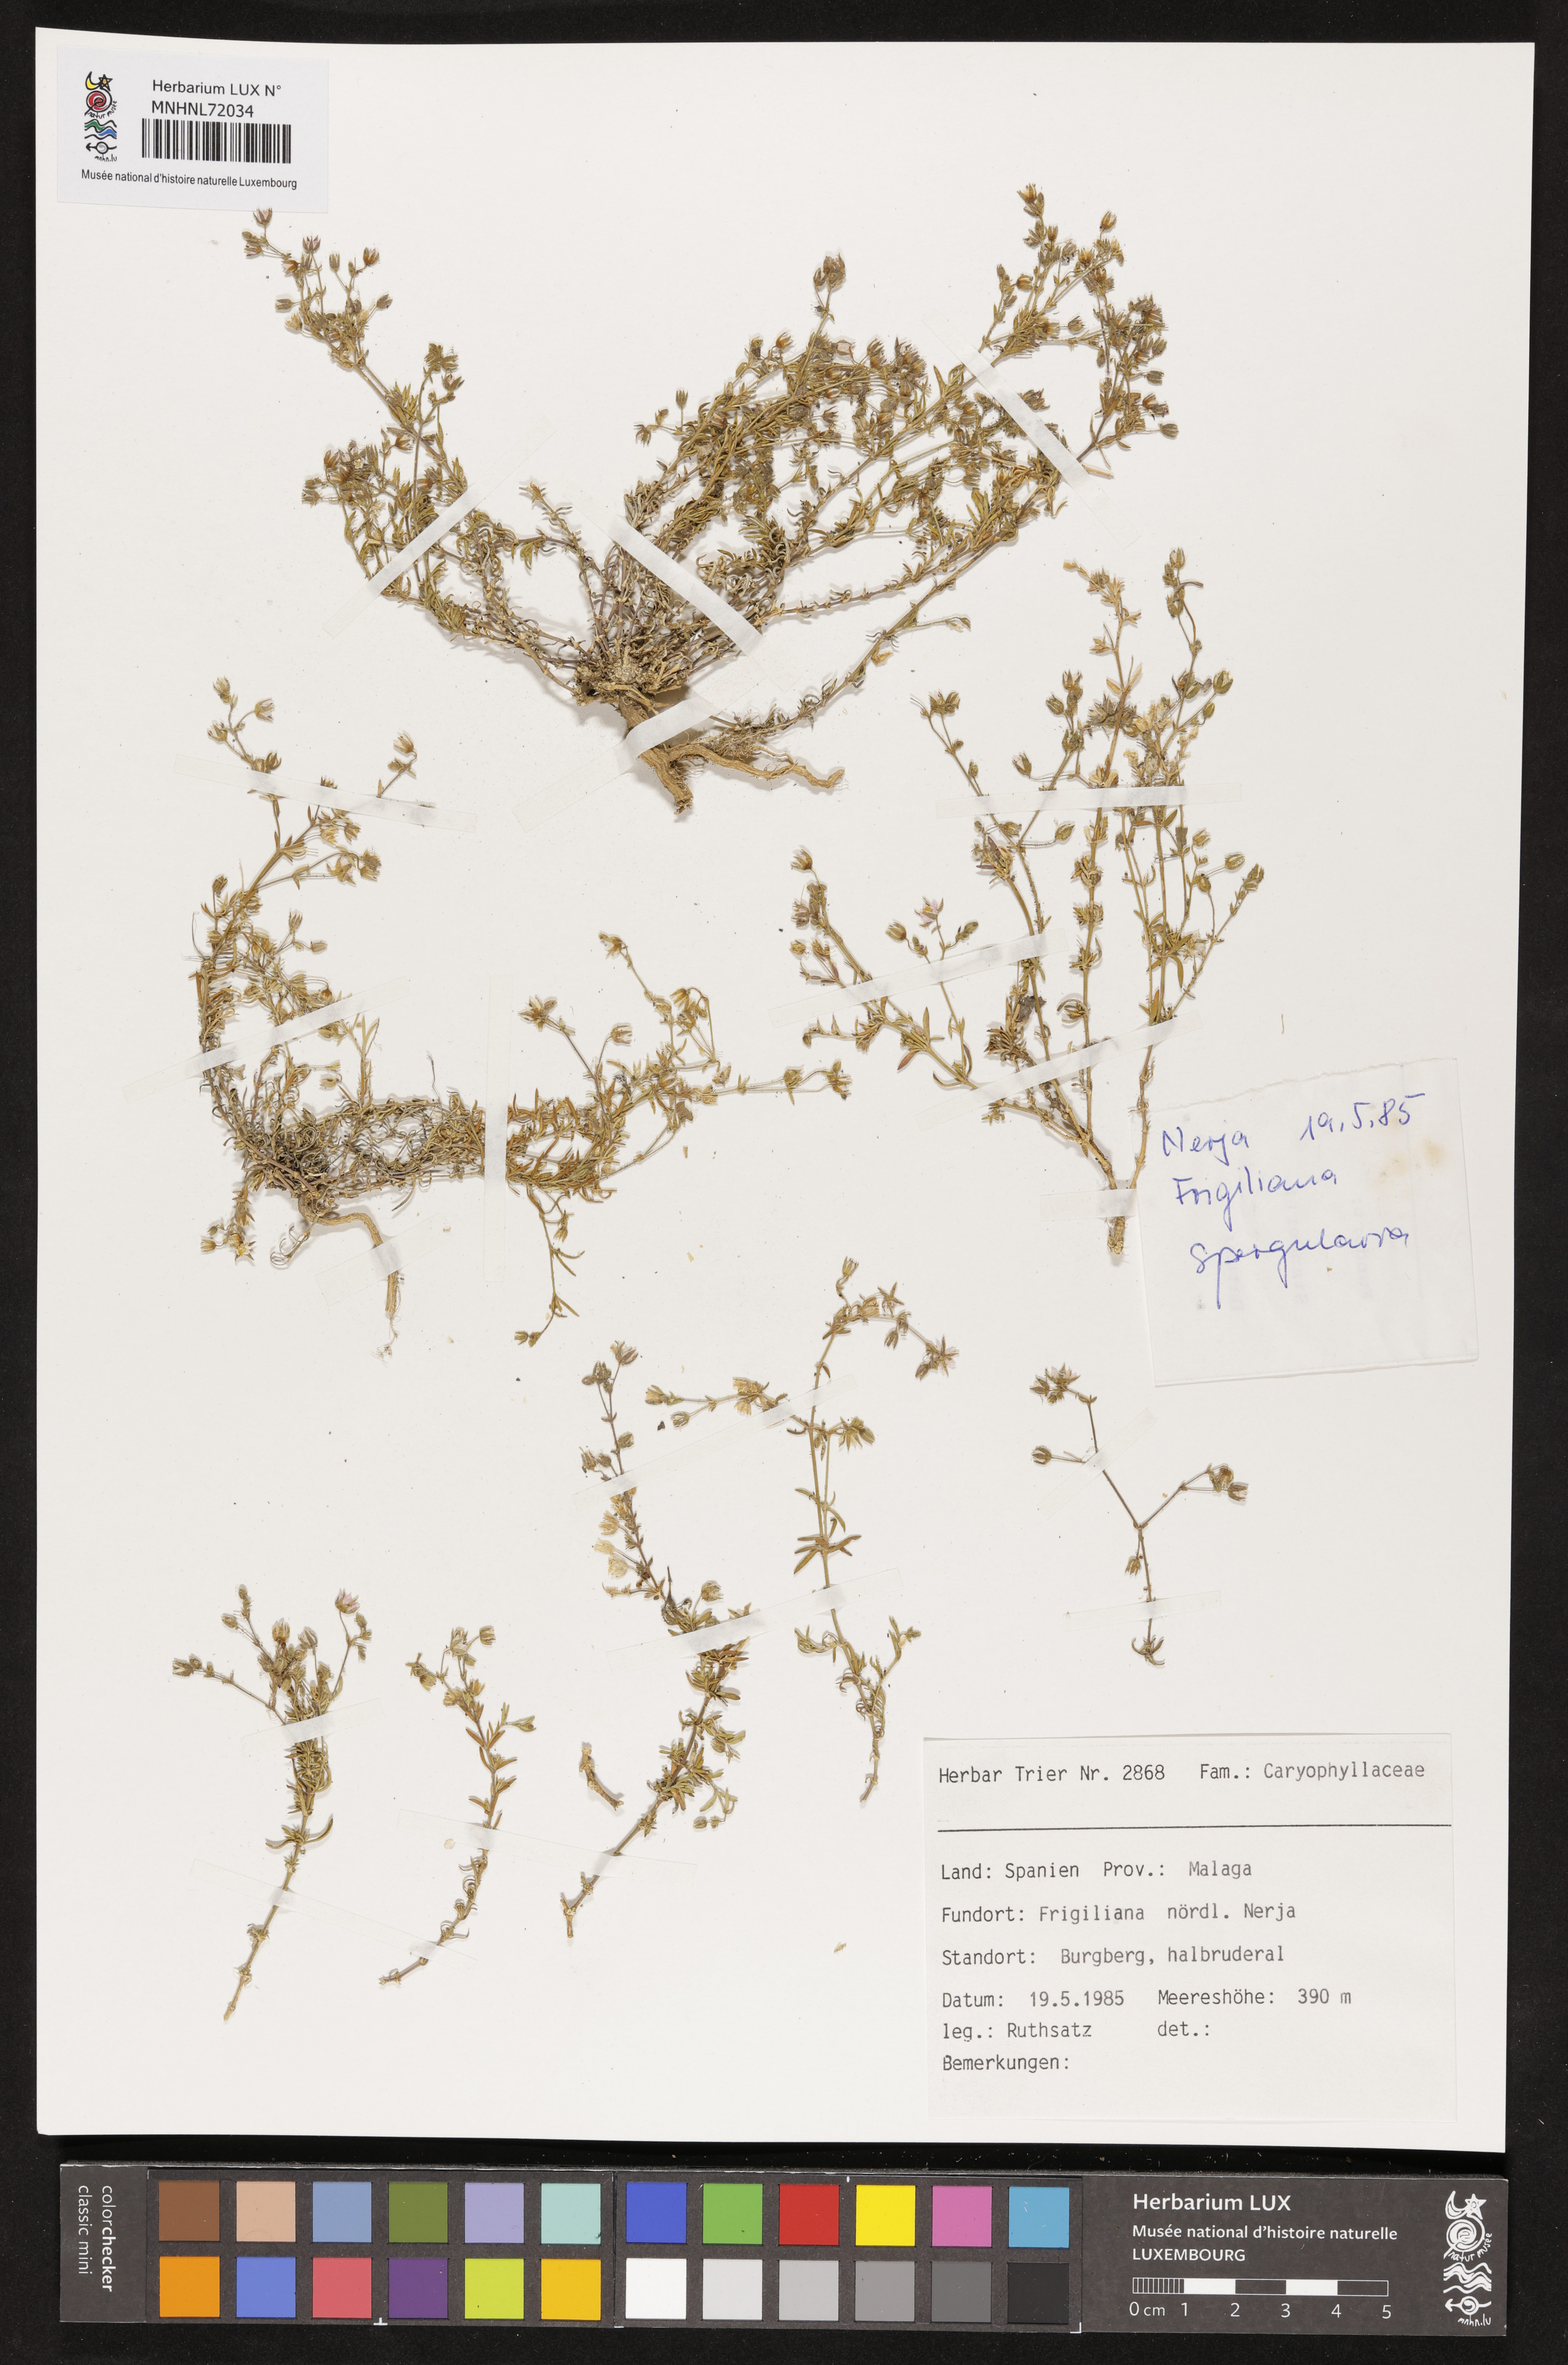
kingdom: Plantae
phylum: Tracheophyta
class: Magnoliopsida
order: Caryophyllales
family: Caryophyllaceae
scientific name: Caryophyllaceae
